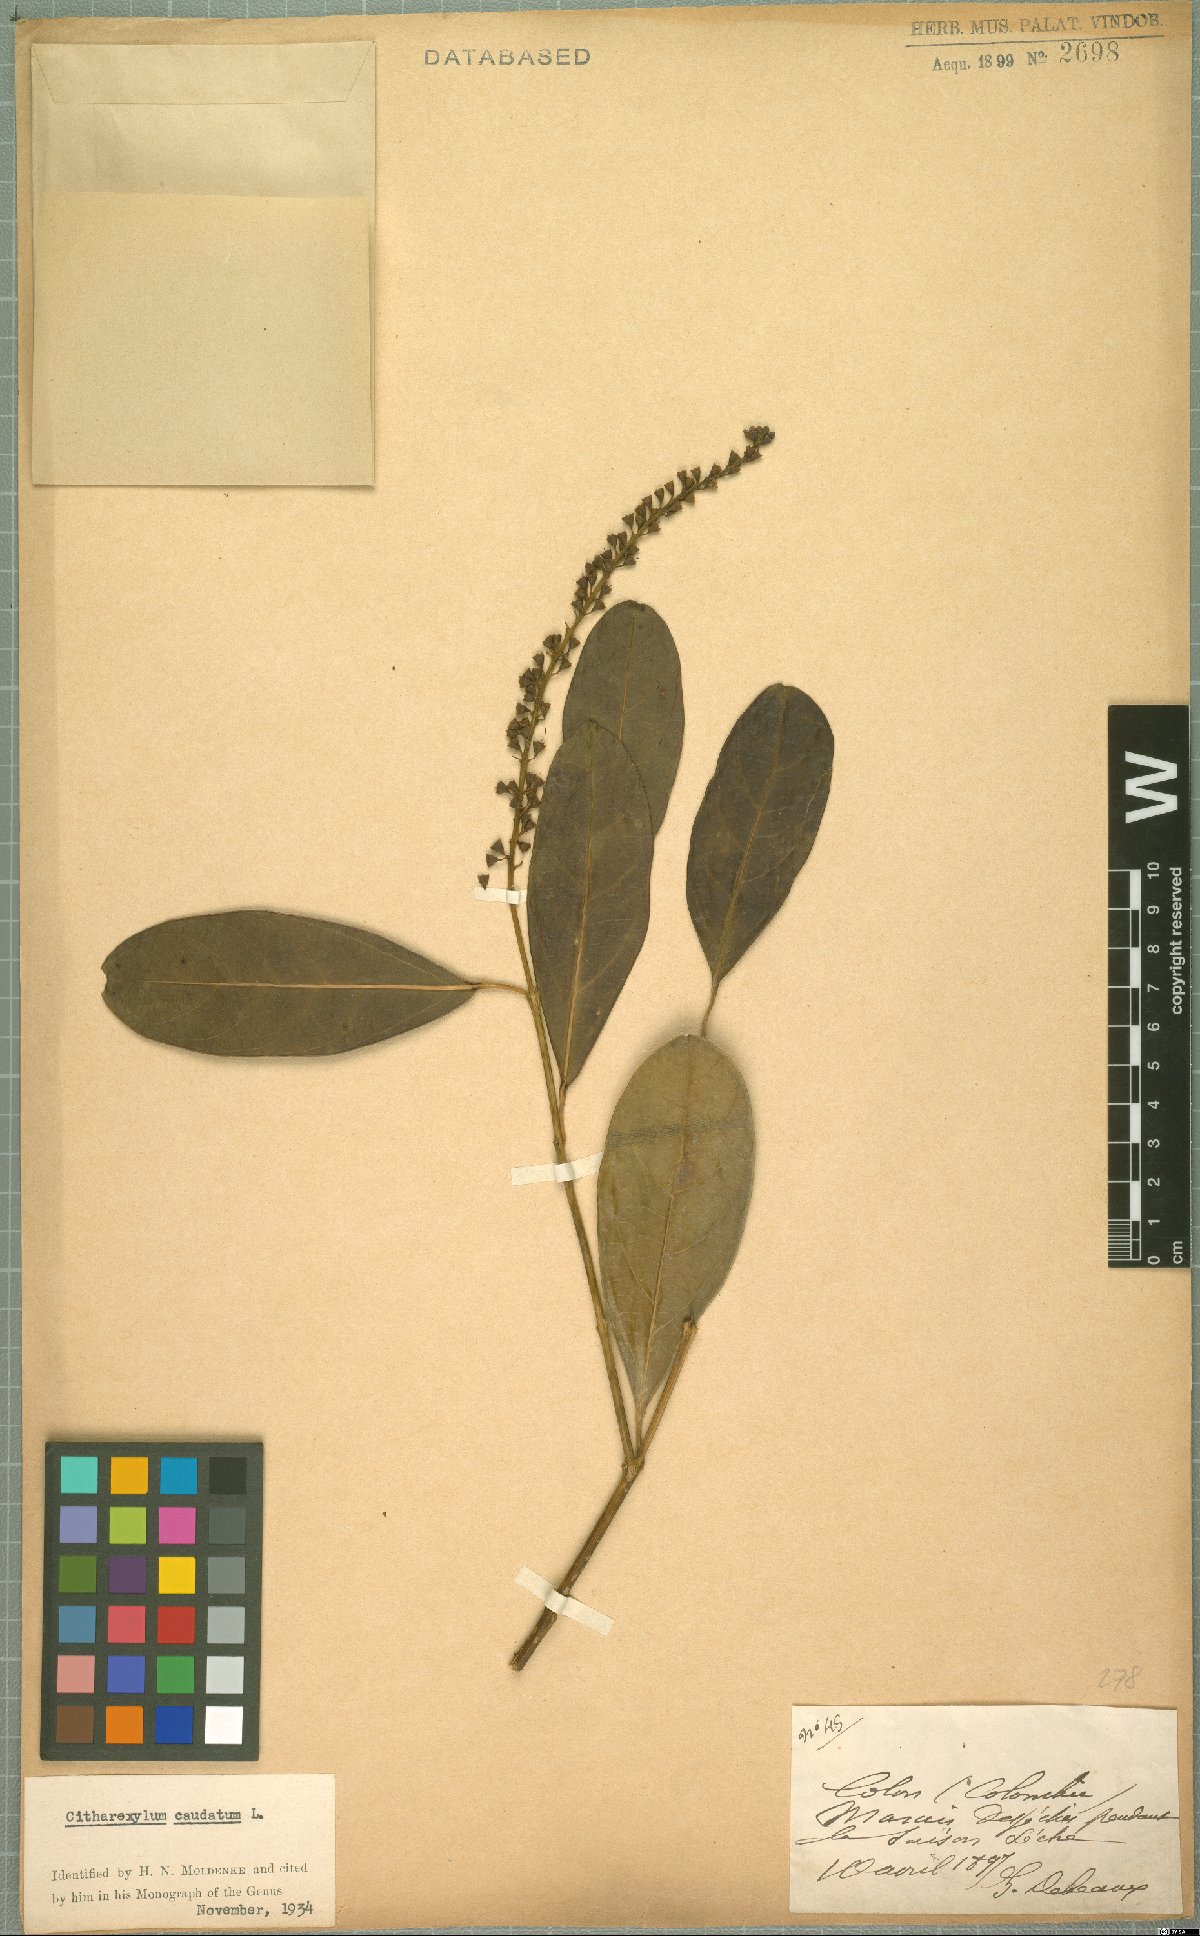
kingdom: Plantae
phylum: Tracheophyta
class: Magnoliopsida
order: Lamiales
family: Verbenaceae
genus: Citharexylum
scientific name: Citharexylum caudatum
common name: Fiddlewood
